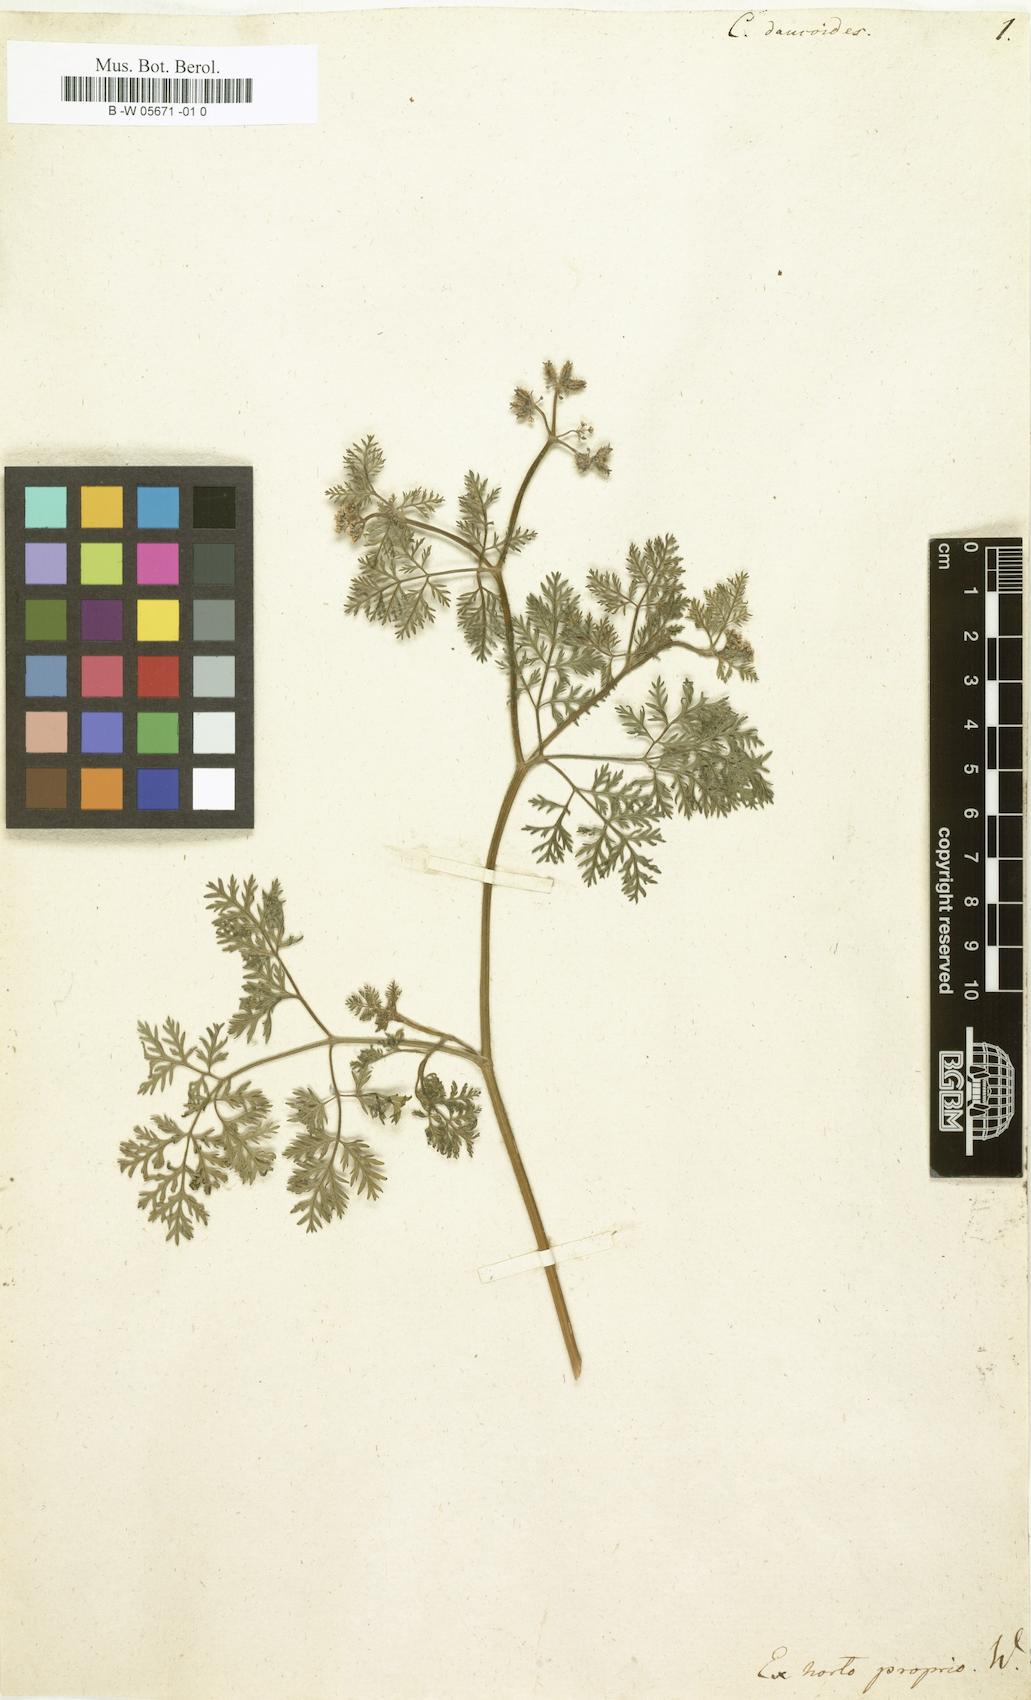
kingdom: Plantae
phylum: Tracheophyta
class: Magnoliopsida
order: Apiales
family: Apiaceae
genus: Orlaya
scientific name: Orlaya daucoides
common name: Flat-fruit orlaya
